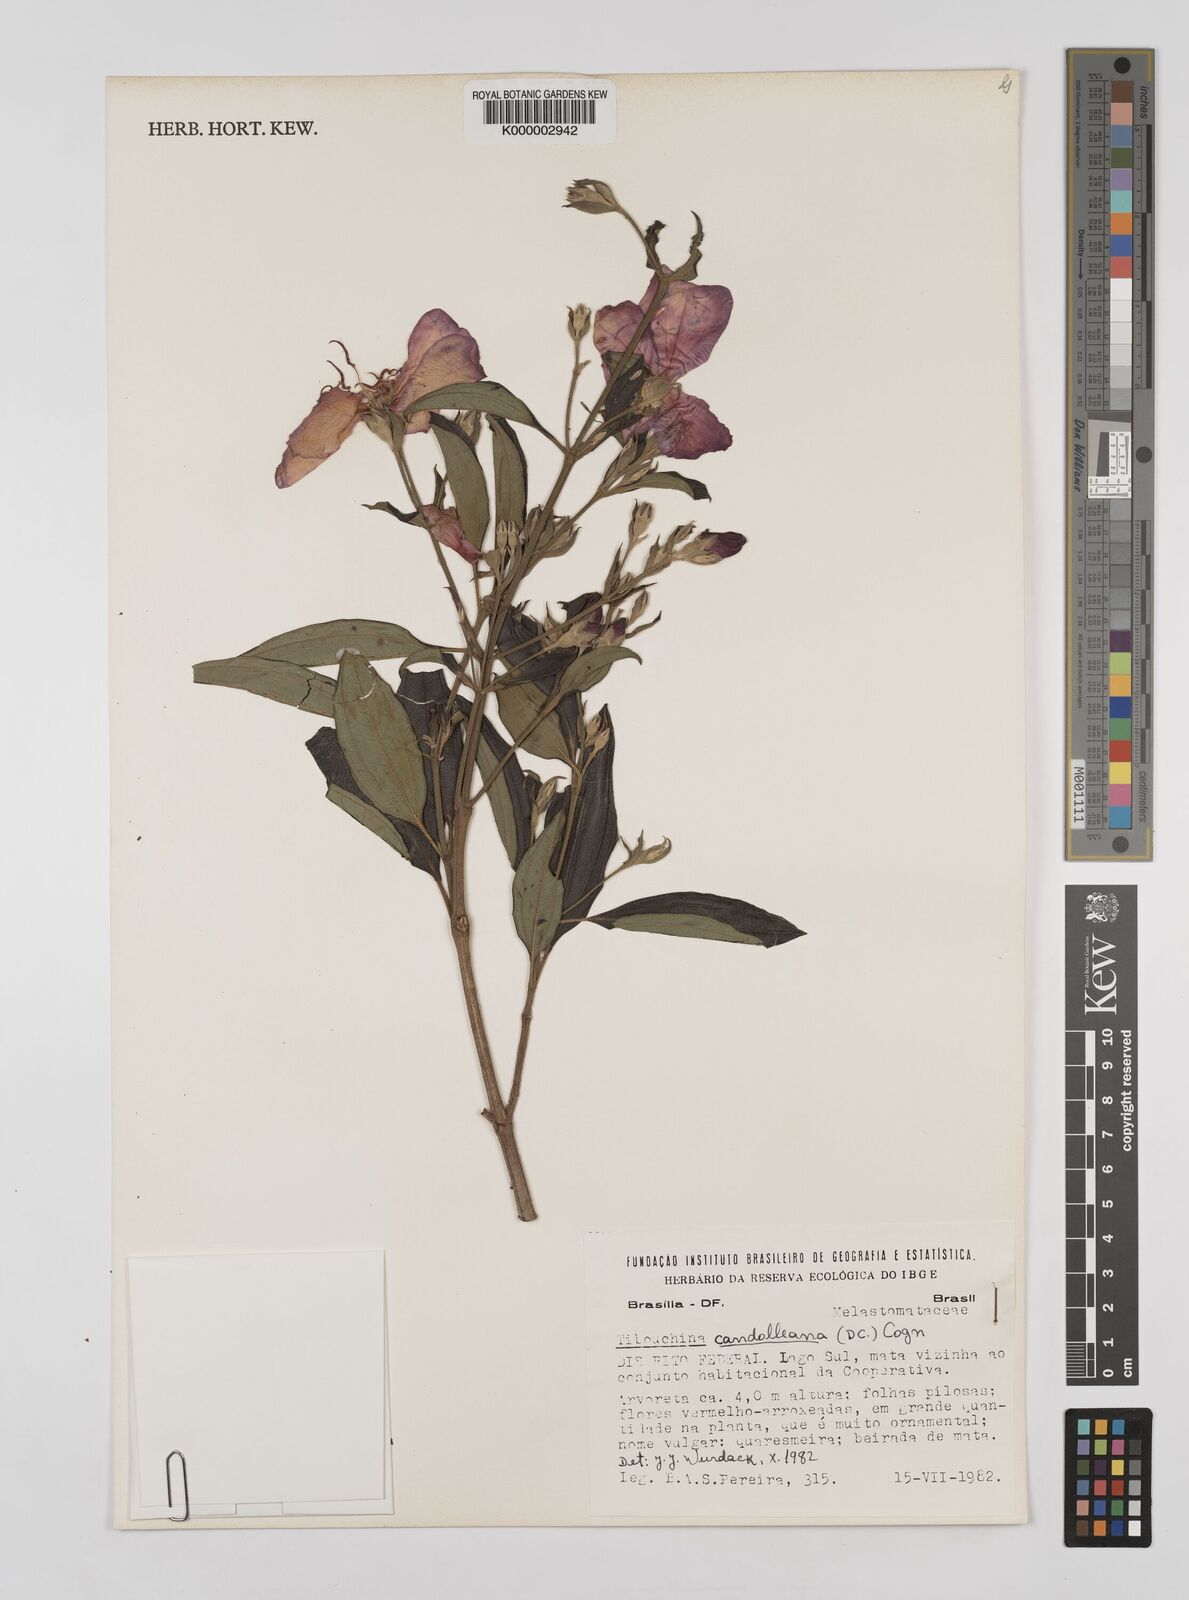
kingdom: Plantae
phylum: Tracheophyta
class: Magnoliopsida
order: Myrtales
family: Melastomataceae
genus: Pleroma
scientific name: Pleroma candolleanum
